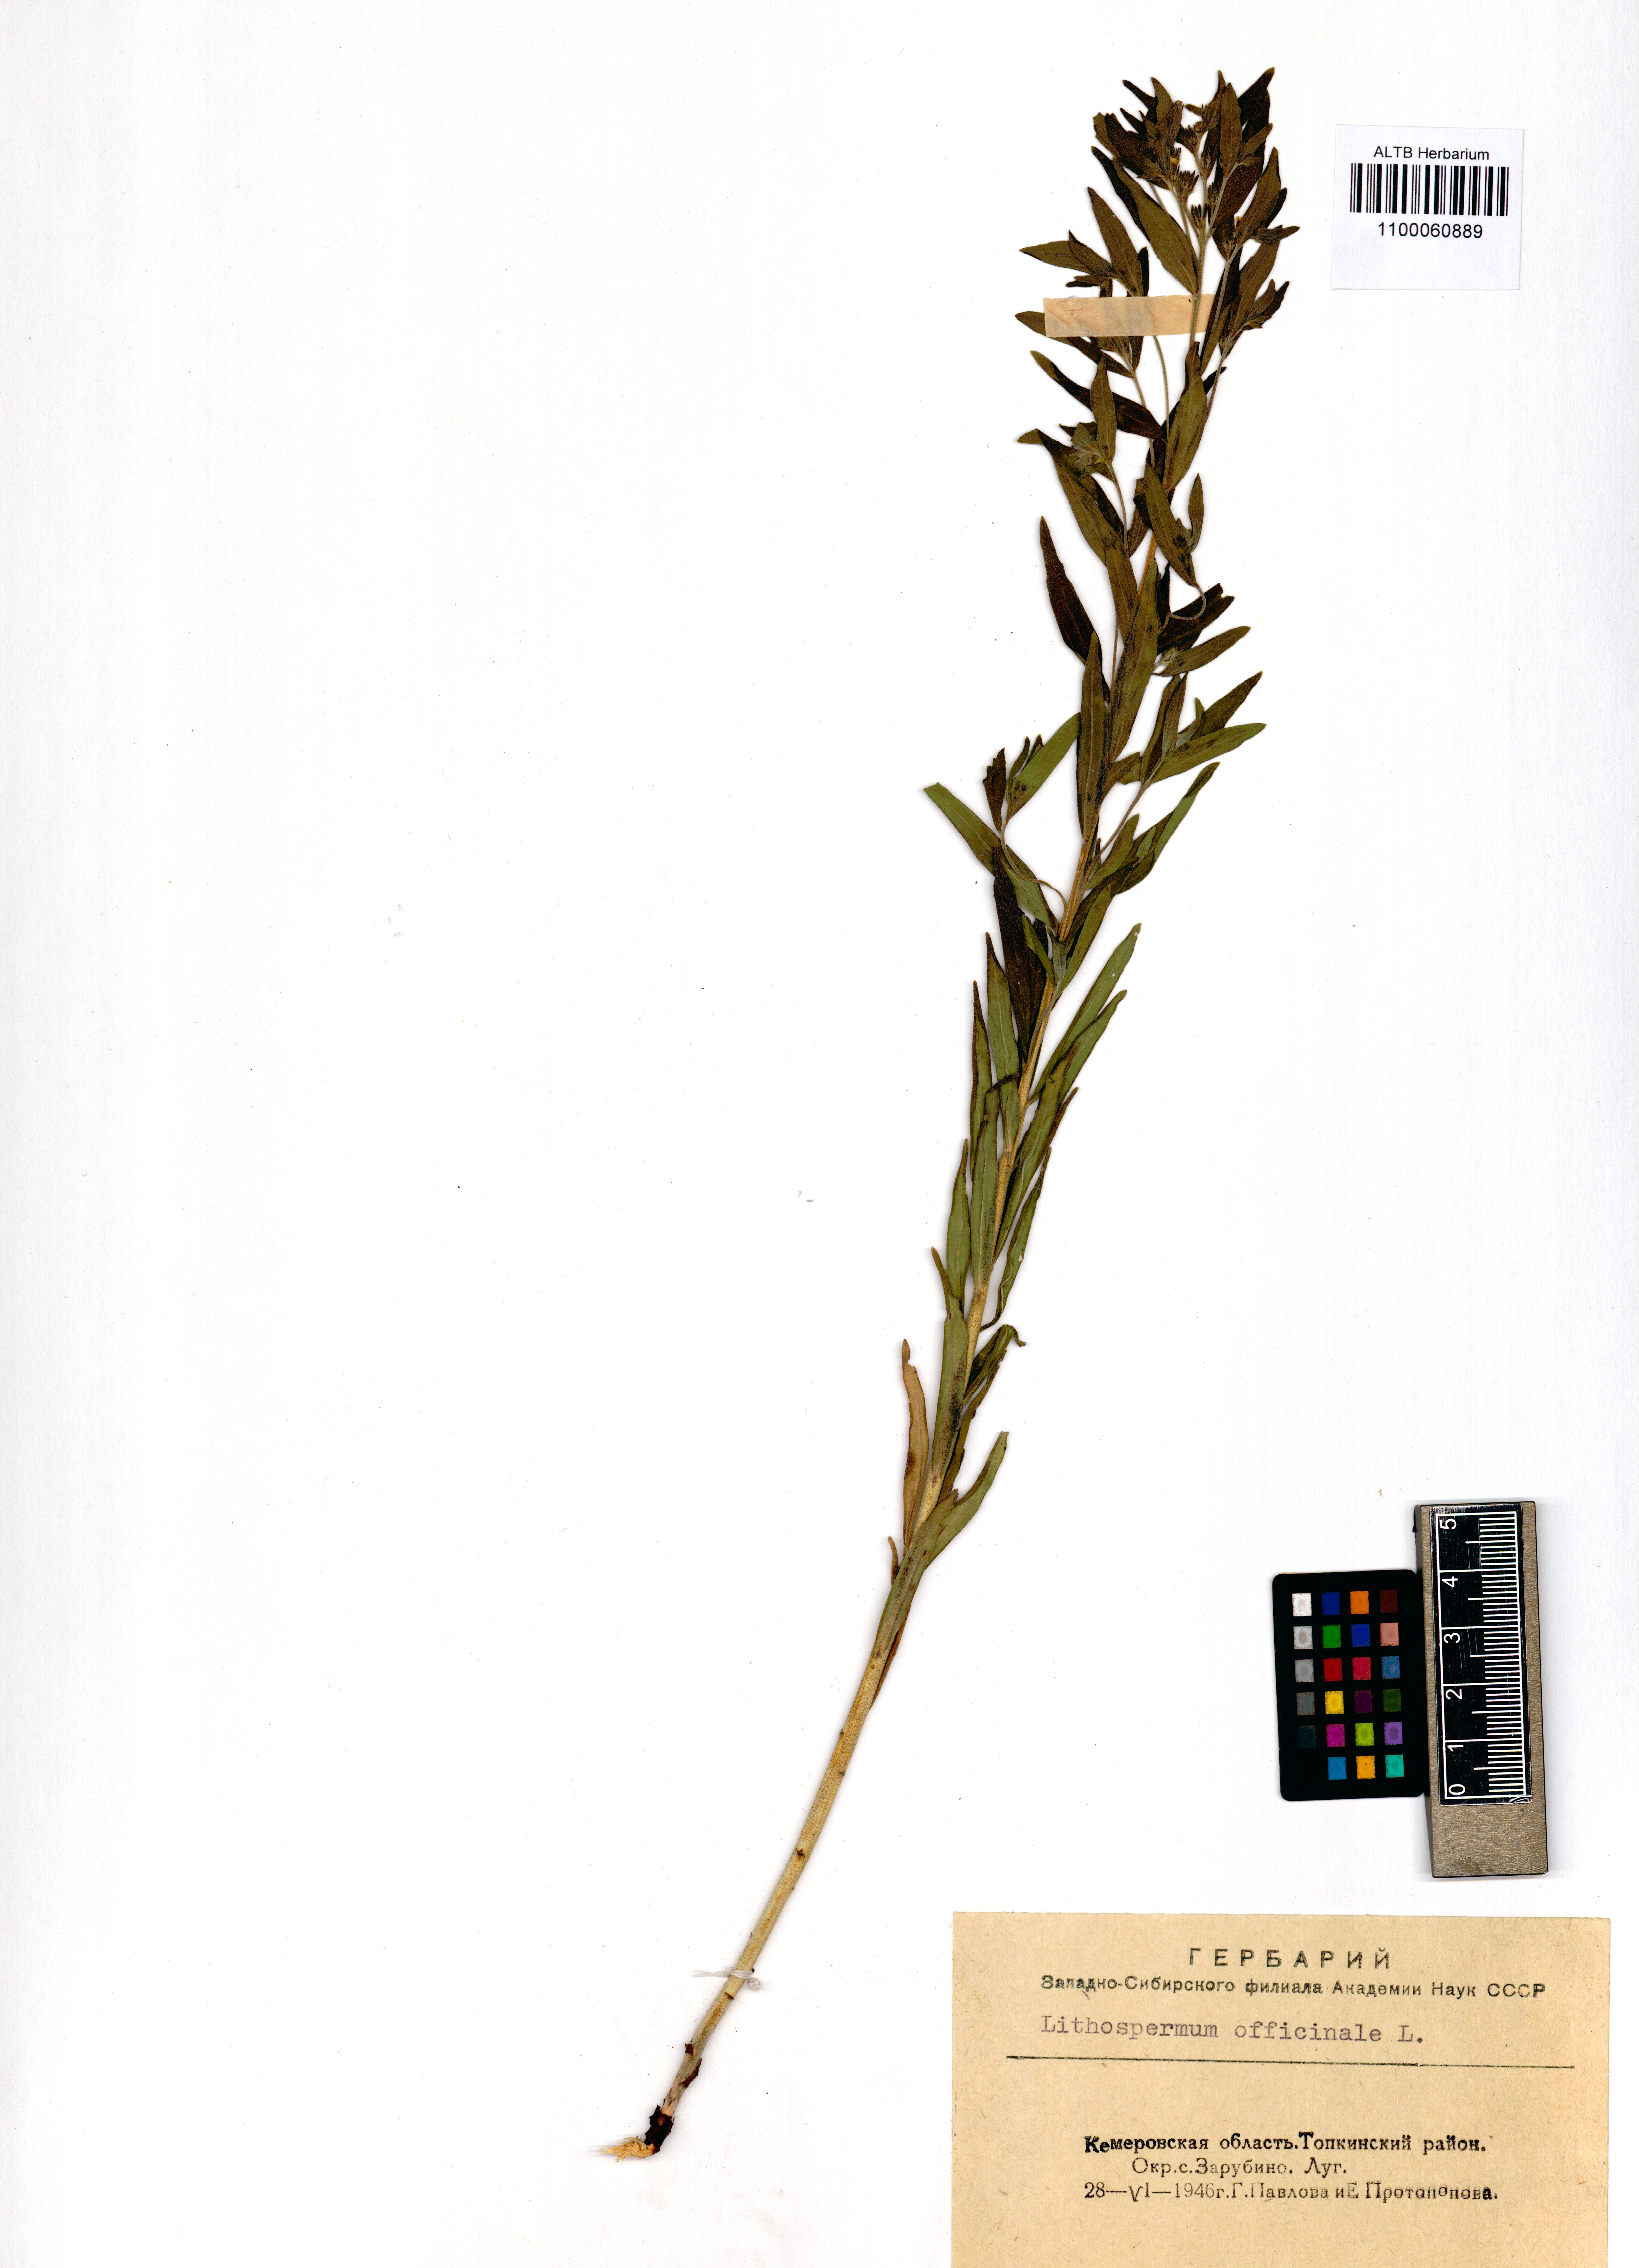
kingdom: Plantae
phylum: Tracheophyta
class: Magnoliopsida
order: Boraginales
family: Boraginaceae
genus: Lithospermum
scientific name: Lithospermum officinale
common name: Common gromwell
